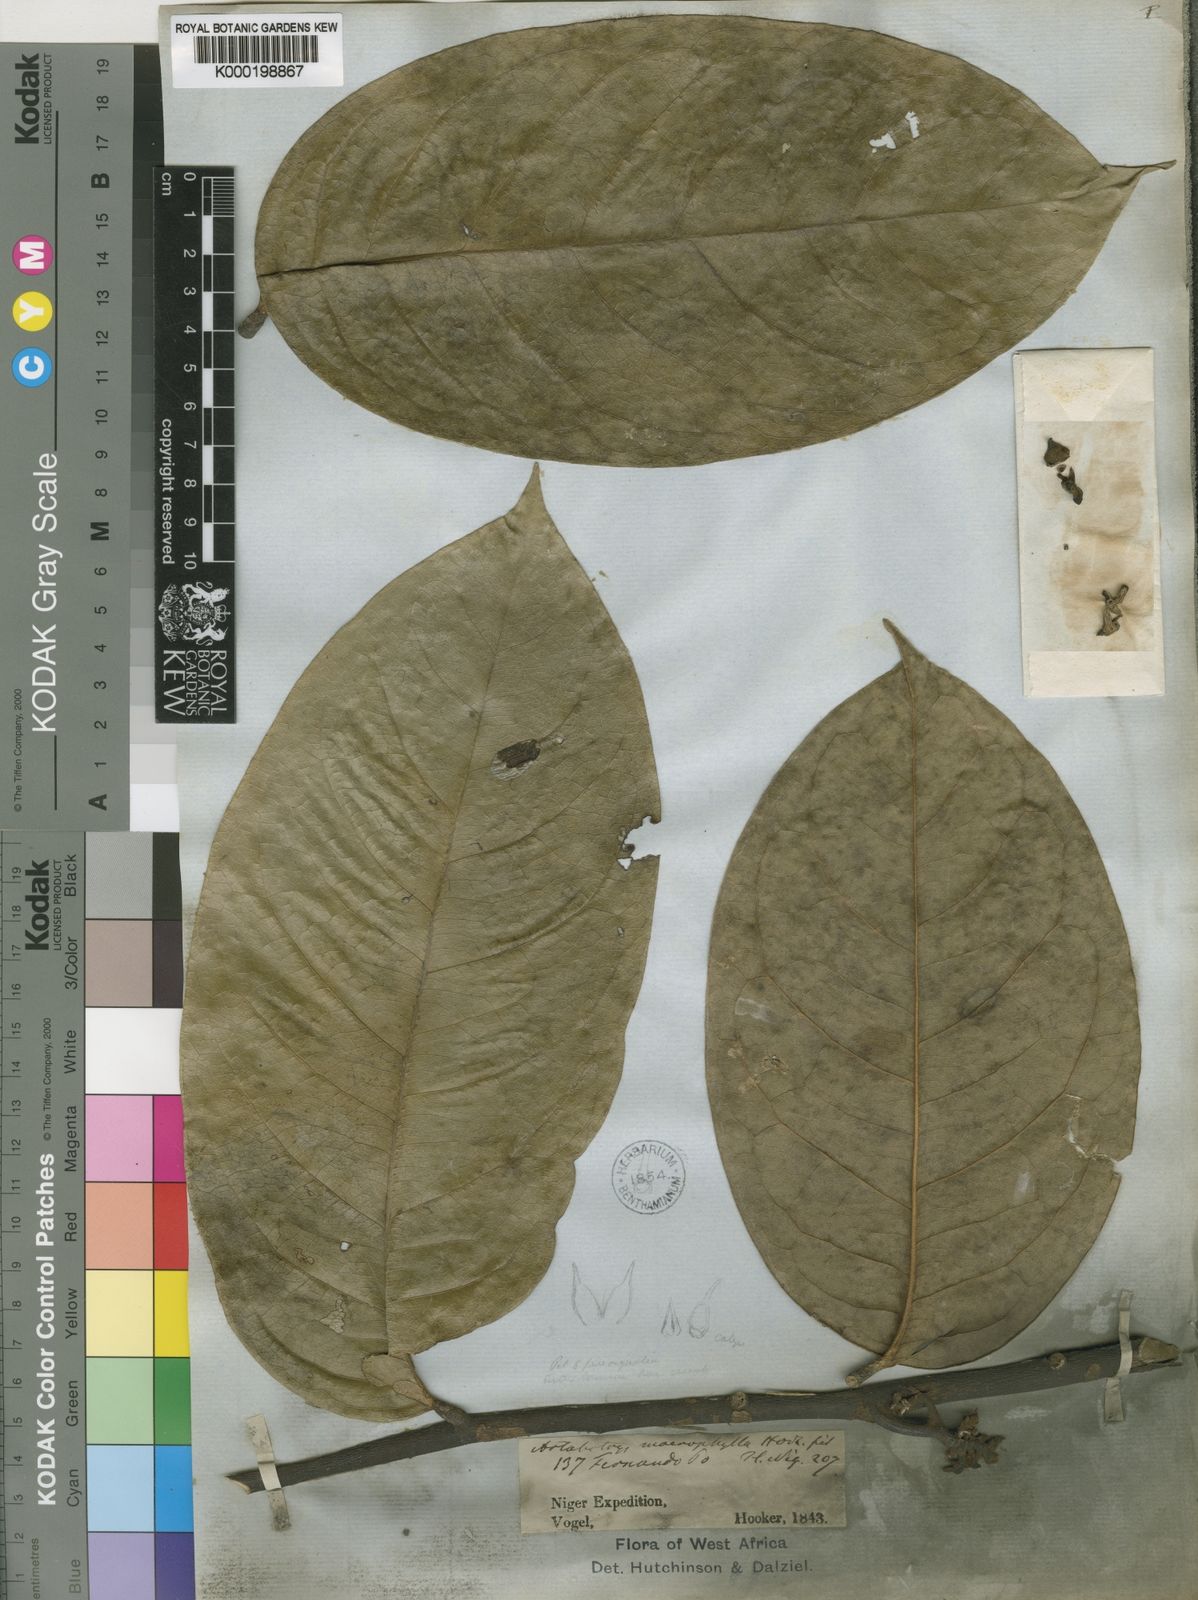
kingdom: Plantae
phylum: Tracheophyta
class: Magnoliopsida
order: Magnoliales
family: Annonaceae
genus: Artabotrys
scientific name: Artabotrys macrophyllus
